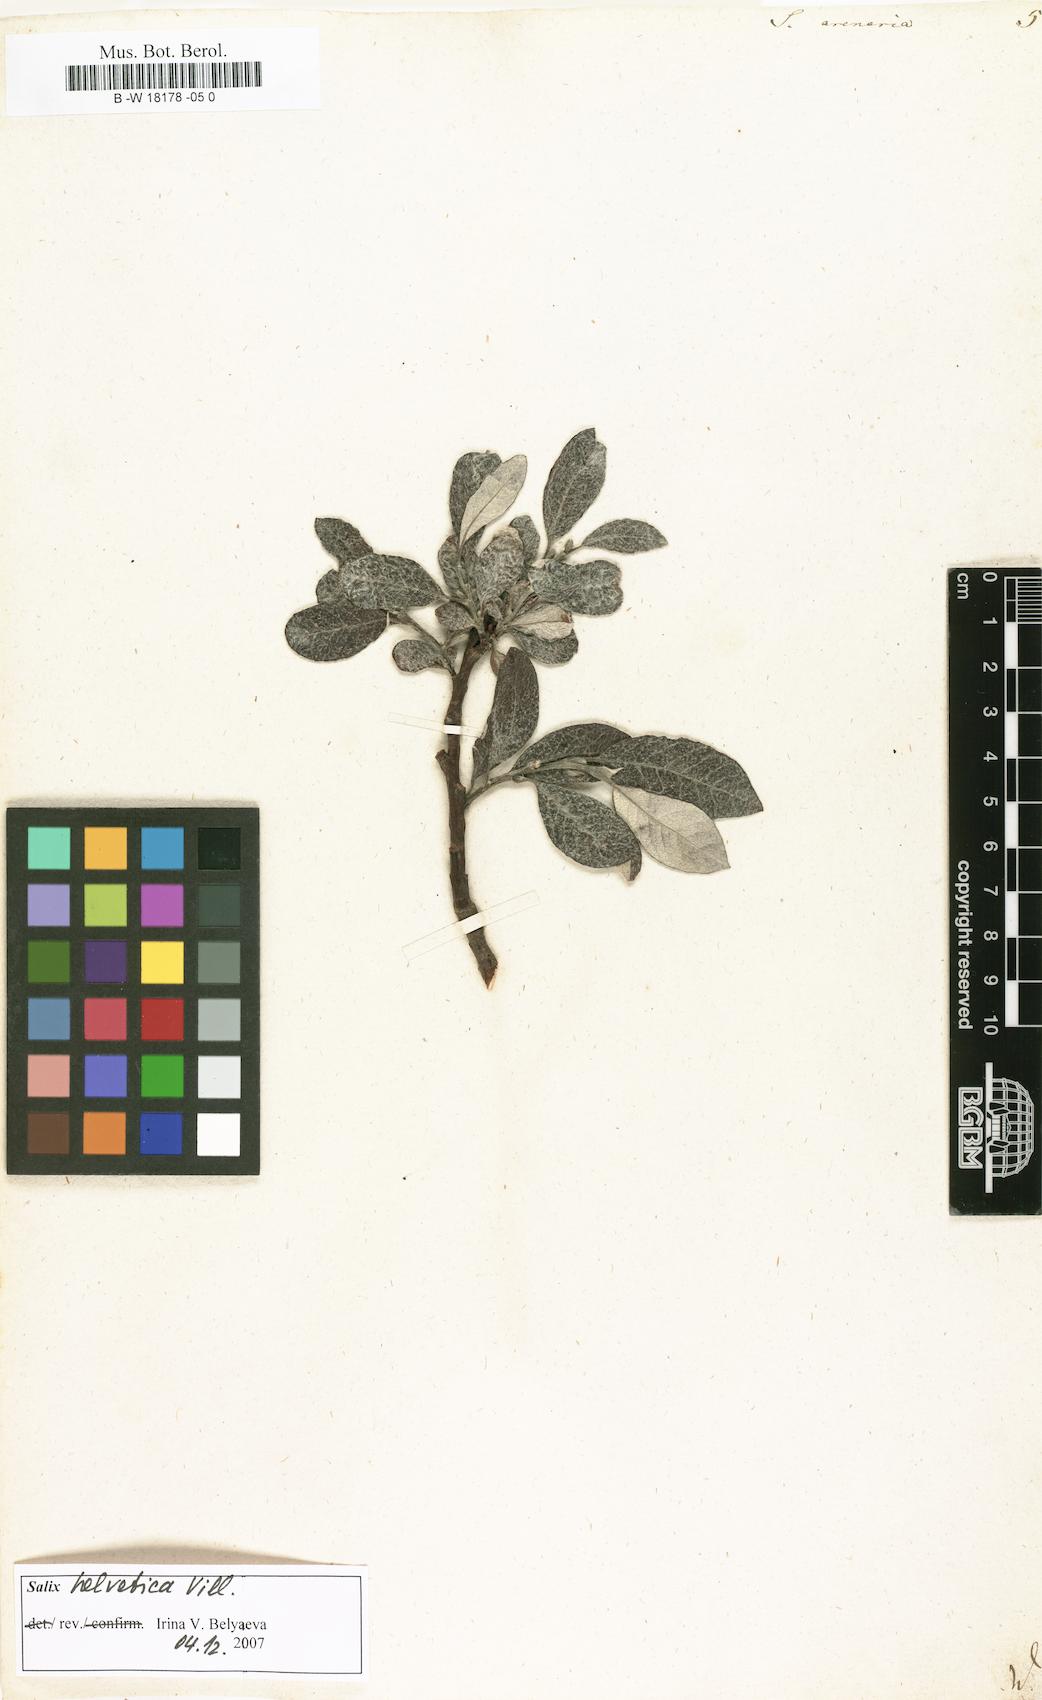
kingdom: Plantae
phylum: Tracheophyta
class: Magnoliopsida
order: Malpighiales
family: Salicaceae
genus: Salix
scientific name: Salix repens
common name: Creeping willow
